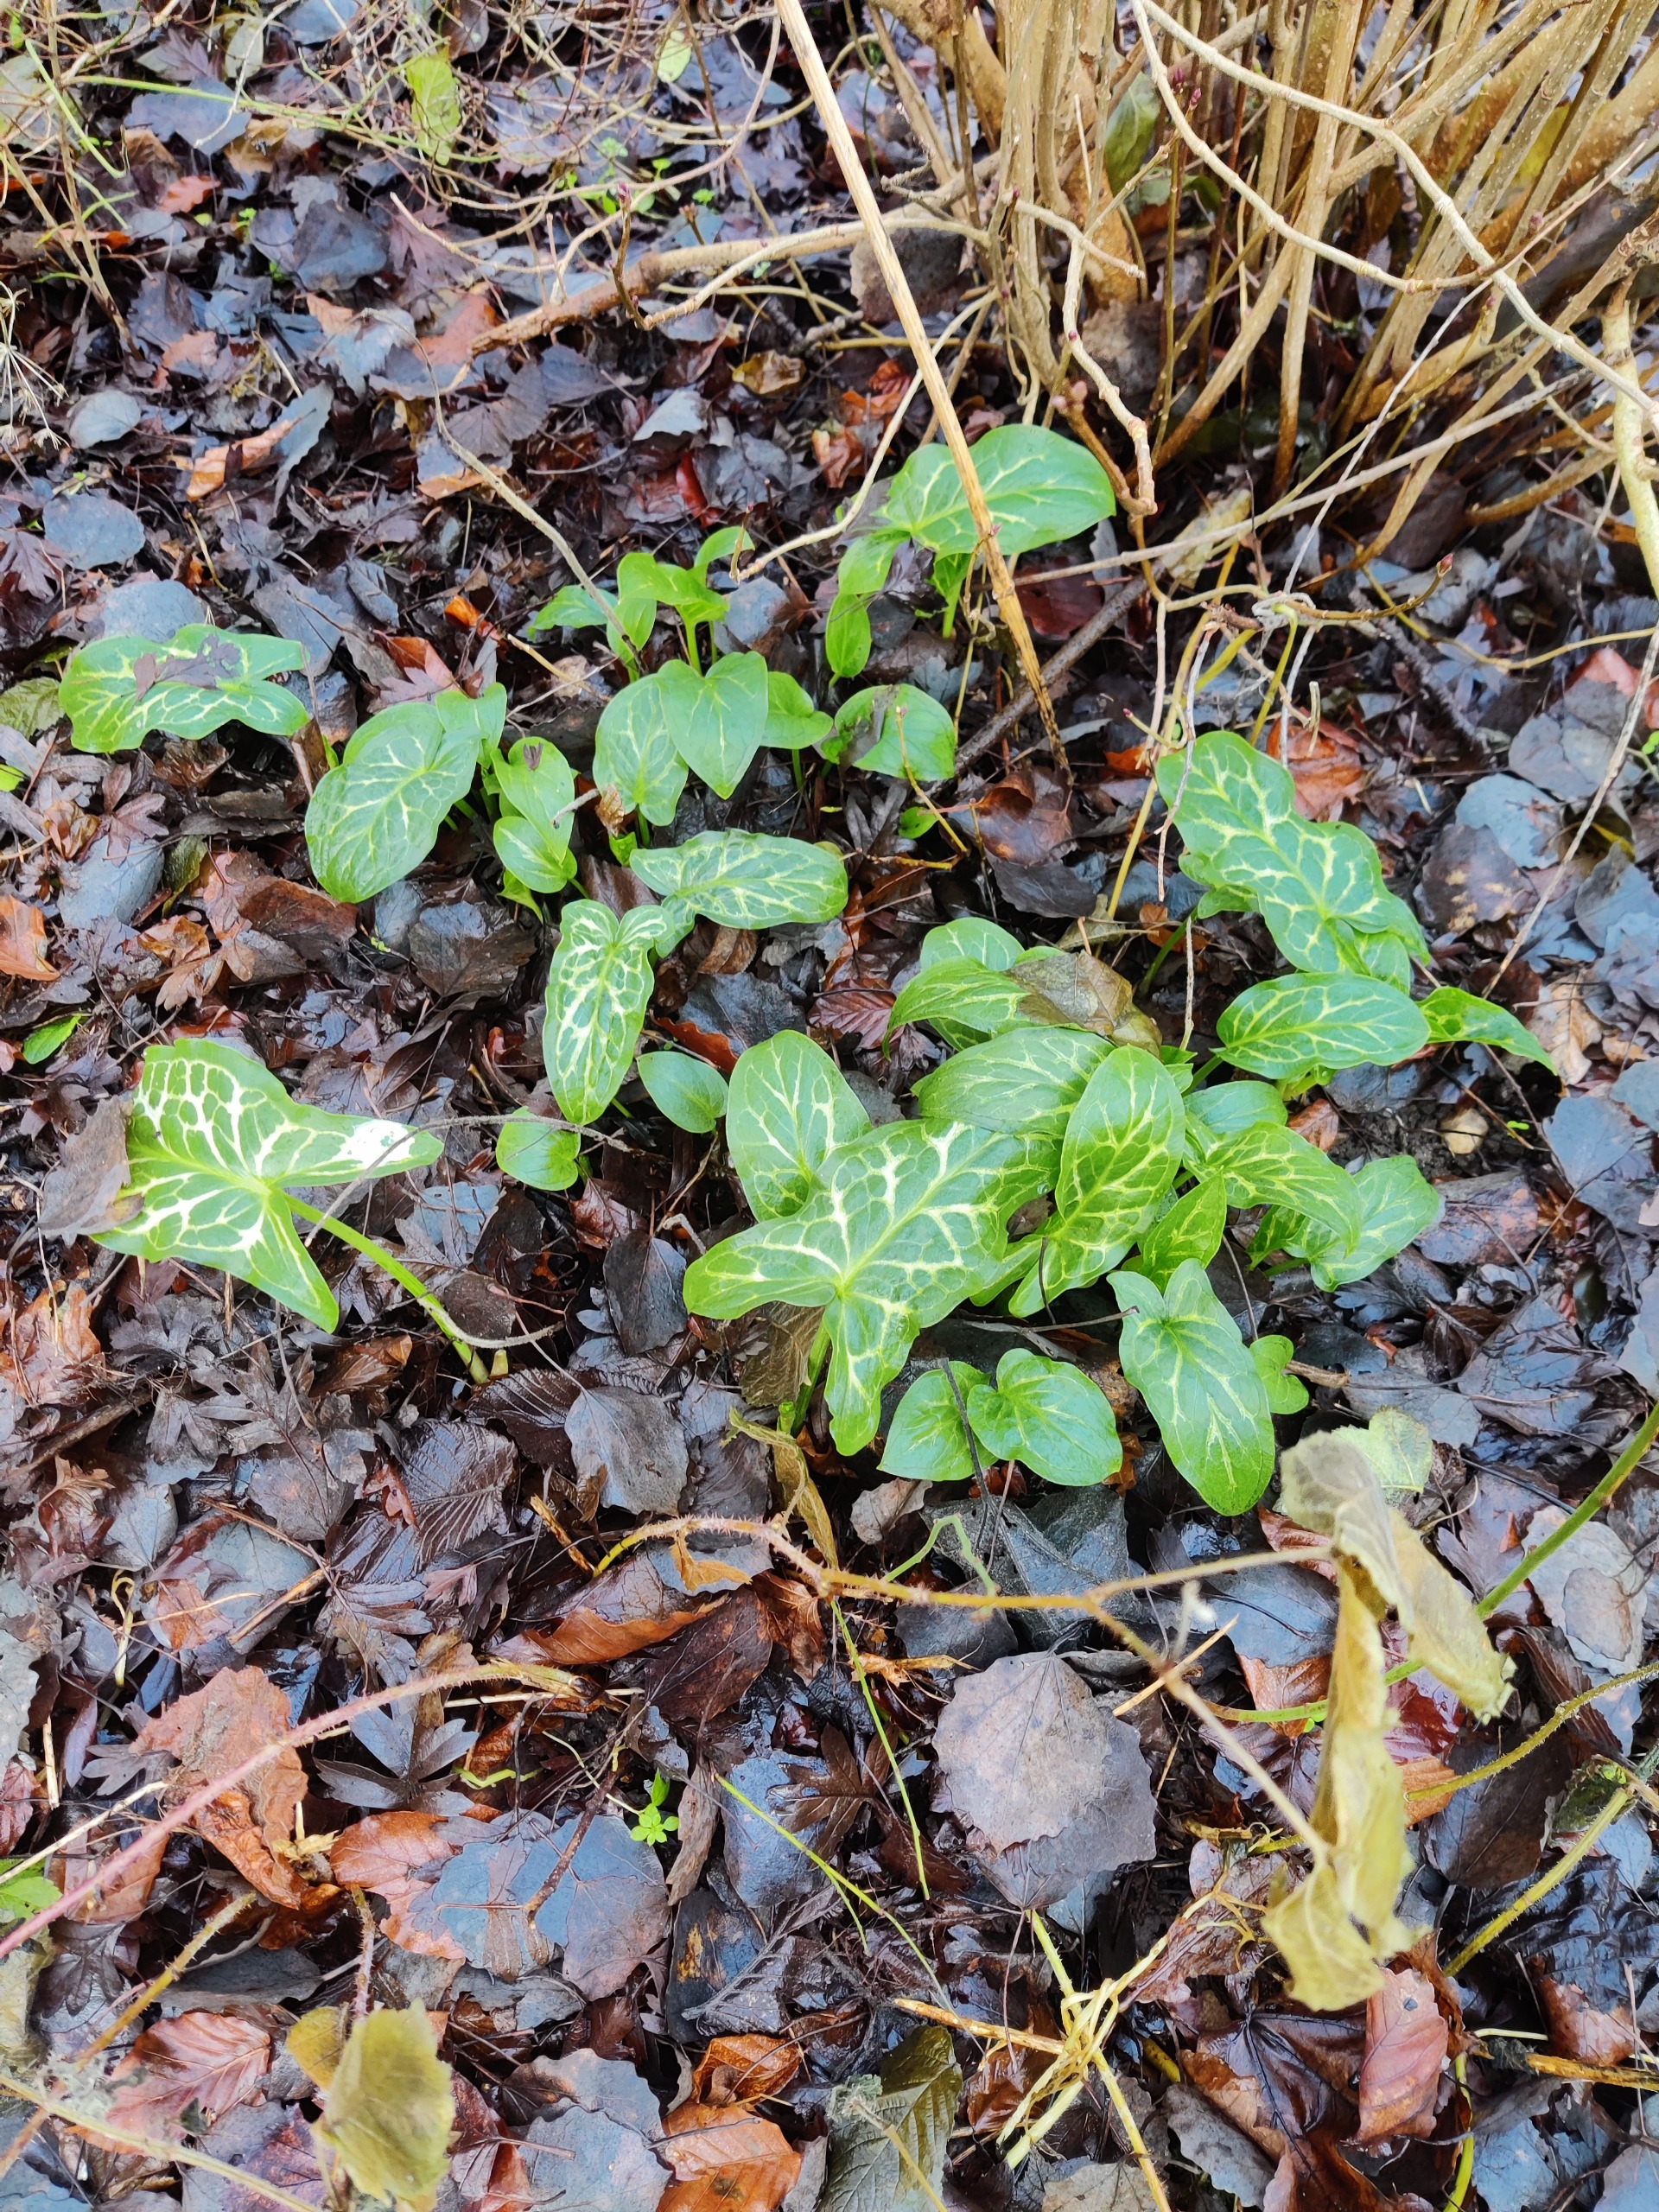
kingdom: Plantae
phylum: Tracheophyta
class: Liliopsida
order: Alismatales
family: Araceae
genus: Arum
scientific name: Arum italicum
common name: Italiensk arum
